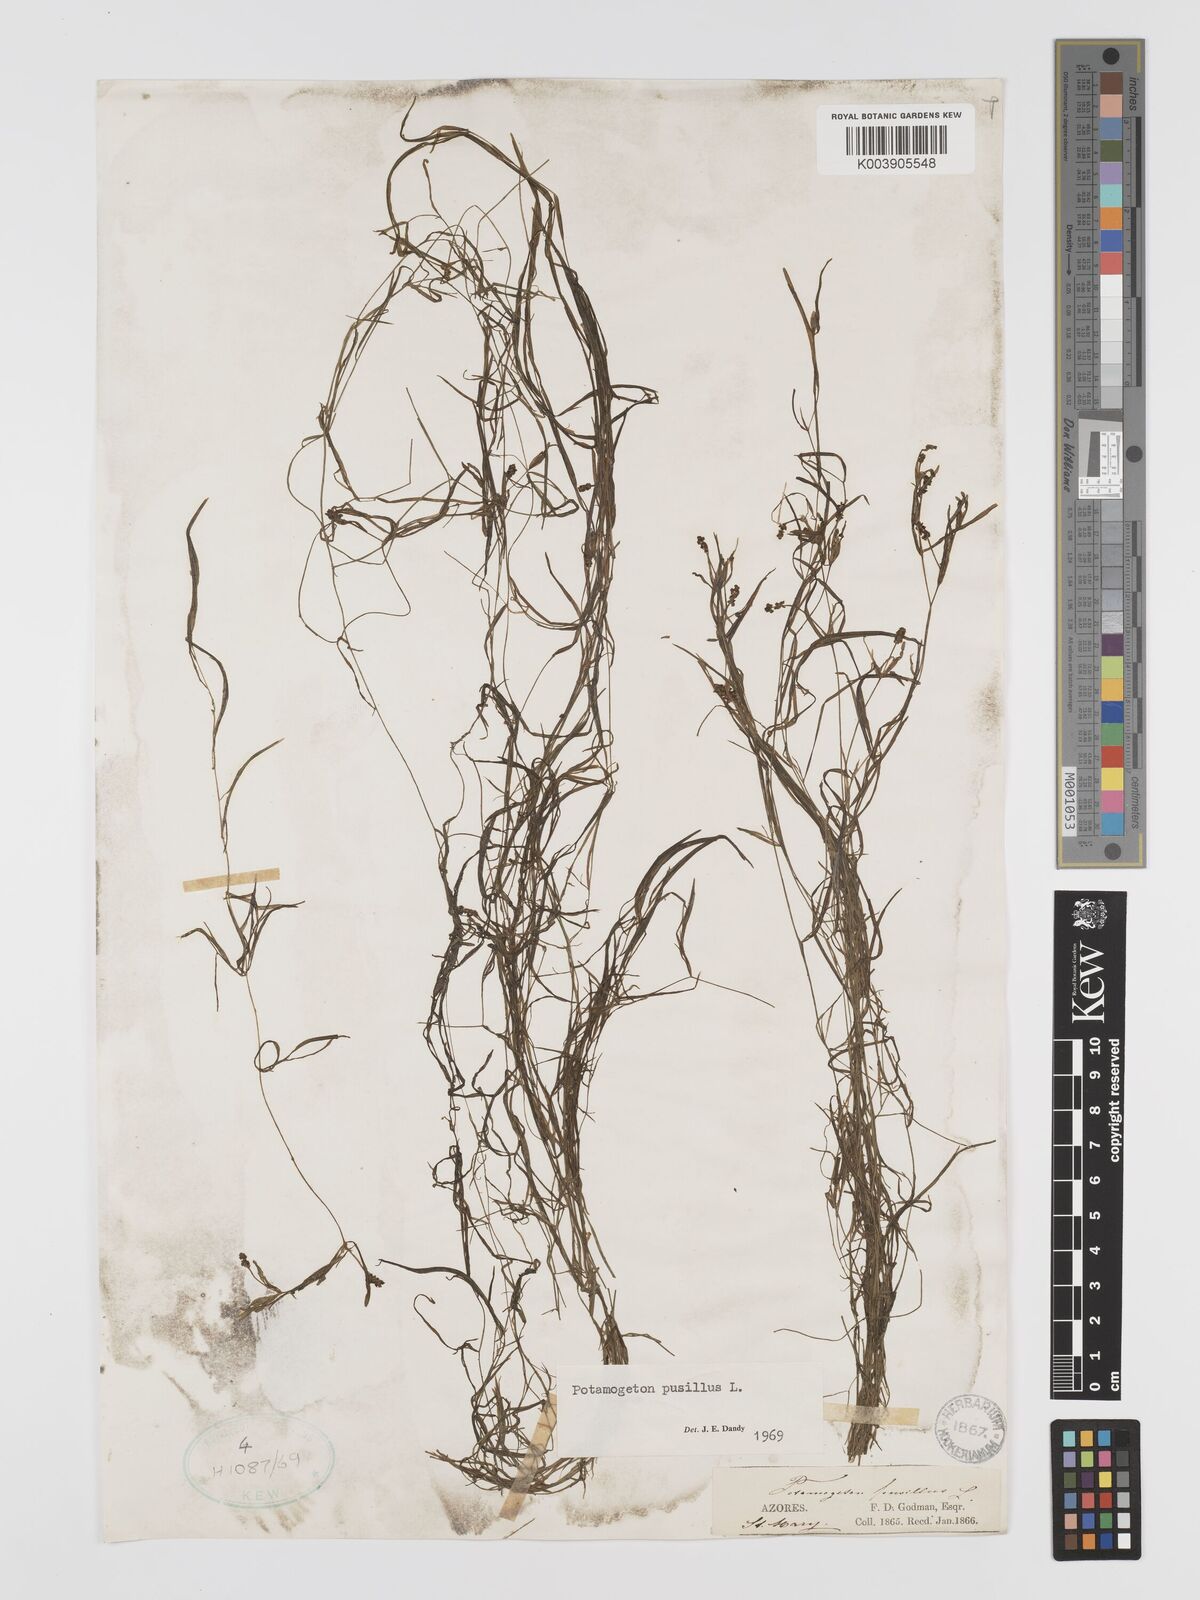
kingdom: Plantae
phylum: Tracheophyta
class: Liliopsida
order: Alismatales
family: Potamogetonaceae
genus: Potamogeton
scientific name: Potamogeton pusillus
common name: Lesser pondweed
